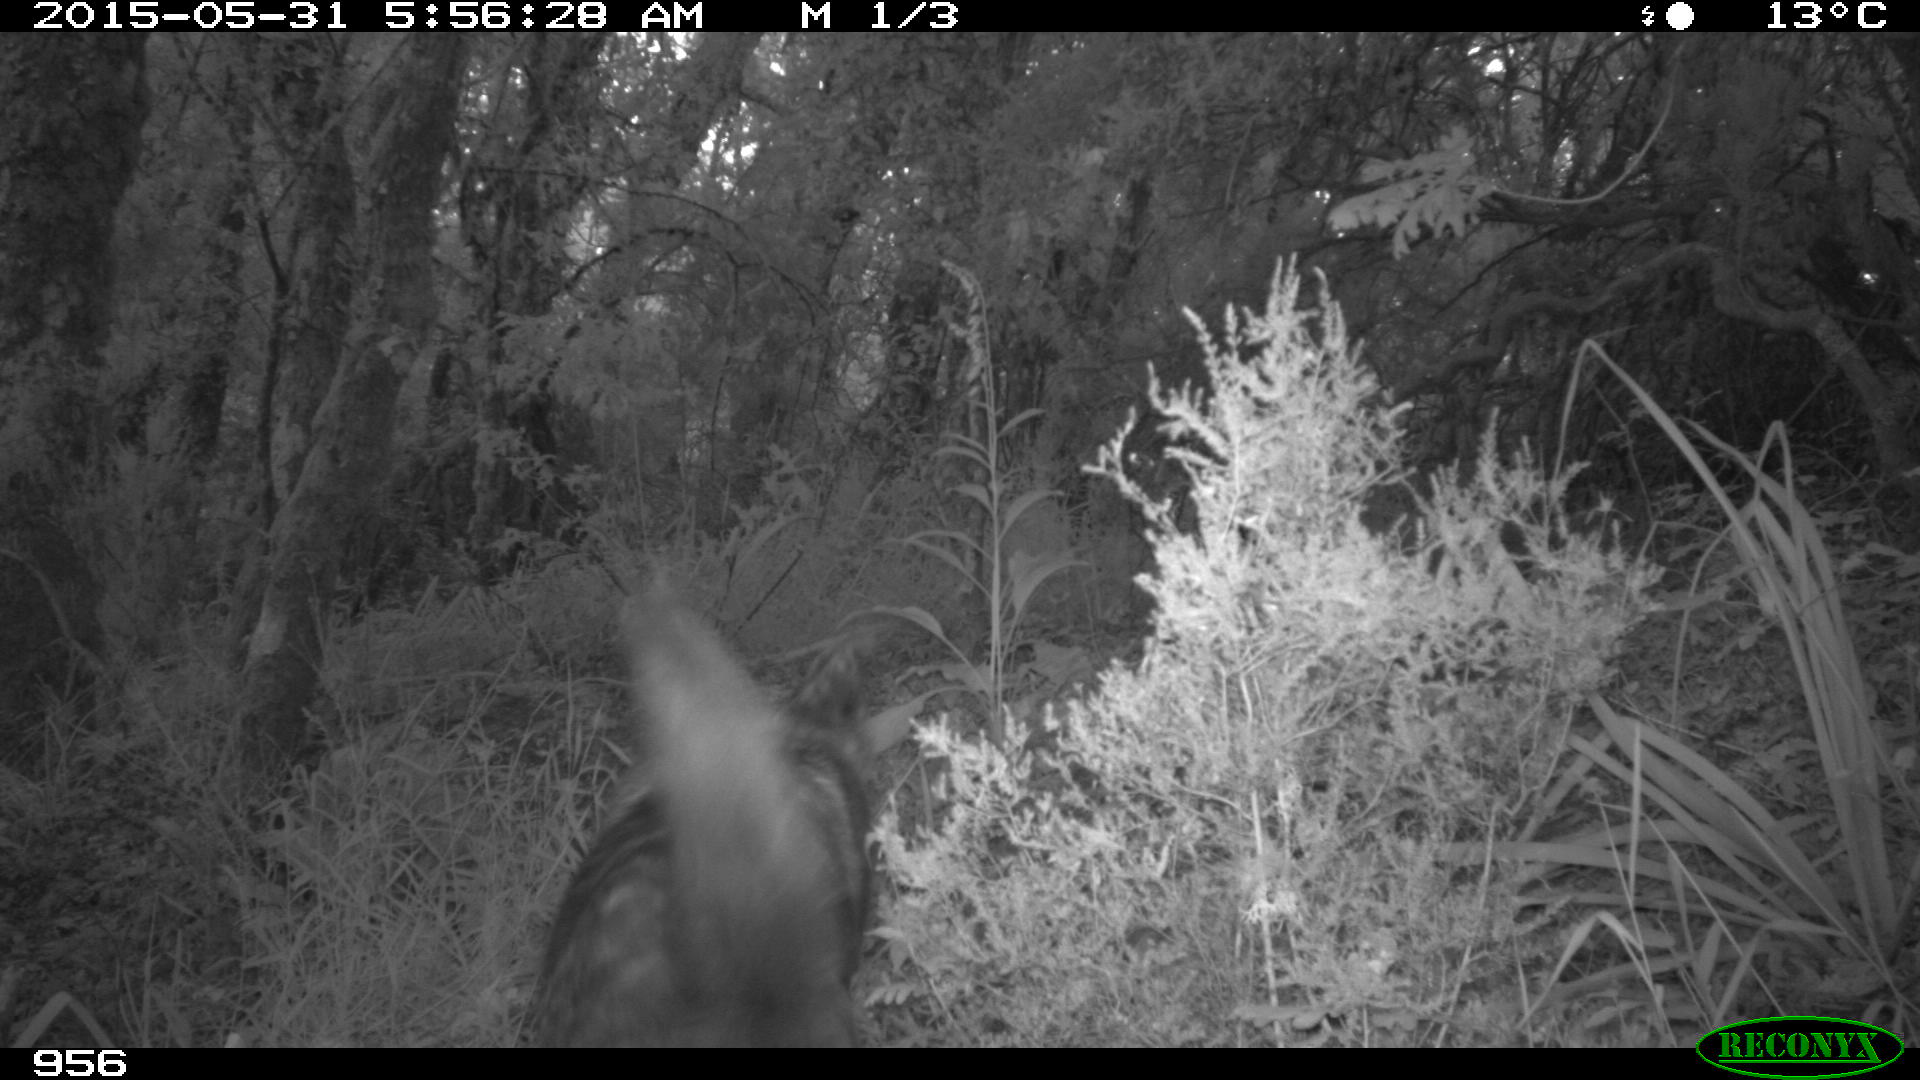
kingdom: Animalia
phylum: Chordata
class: Mammalia
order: Carnivora
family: Canidae
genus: Canis
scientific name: Canis lupus
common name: Gray wolf
